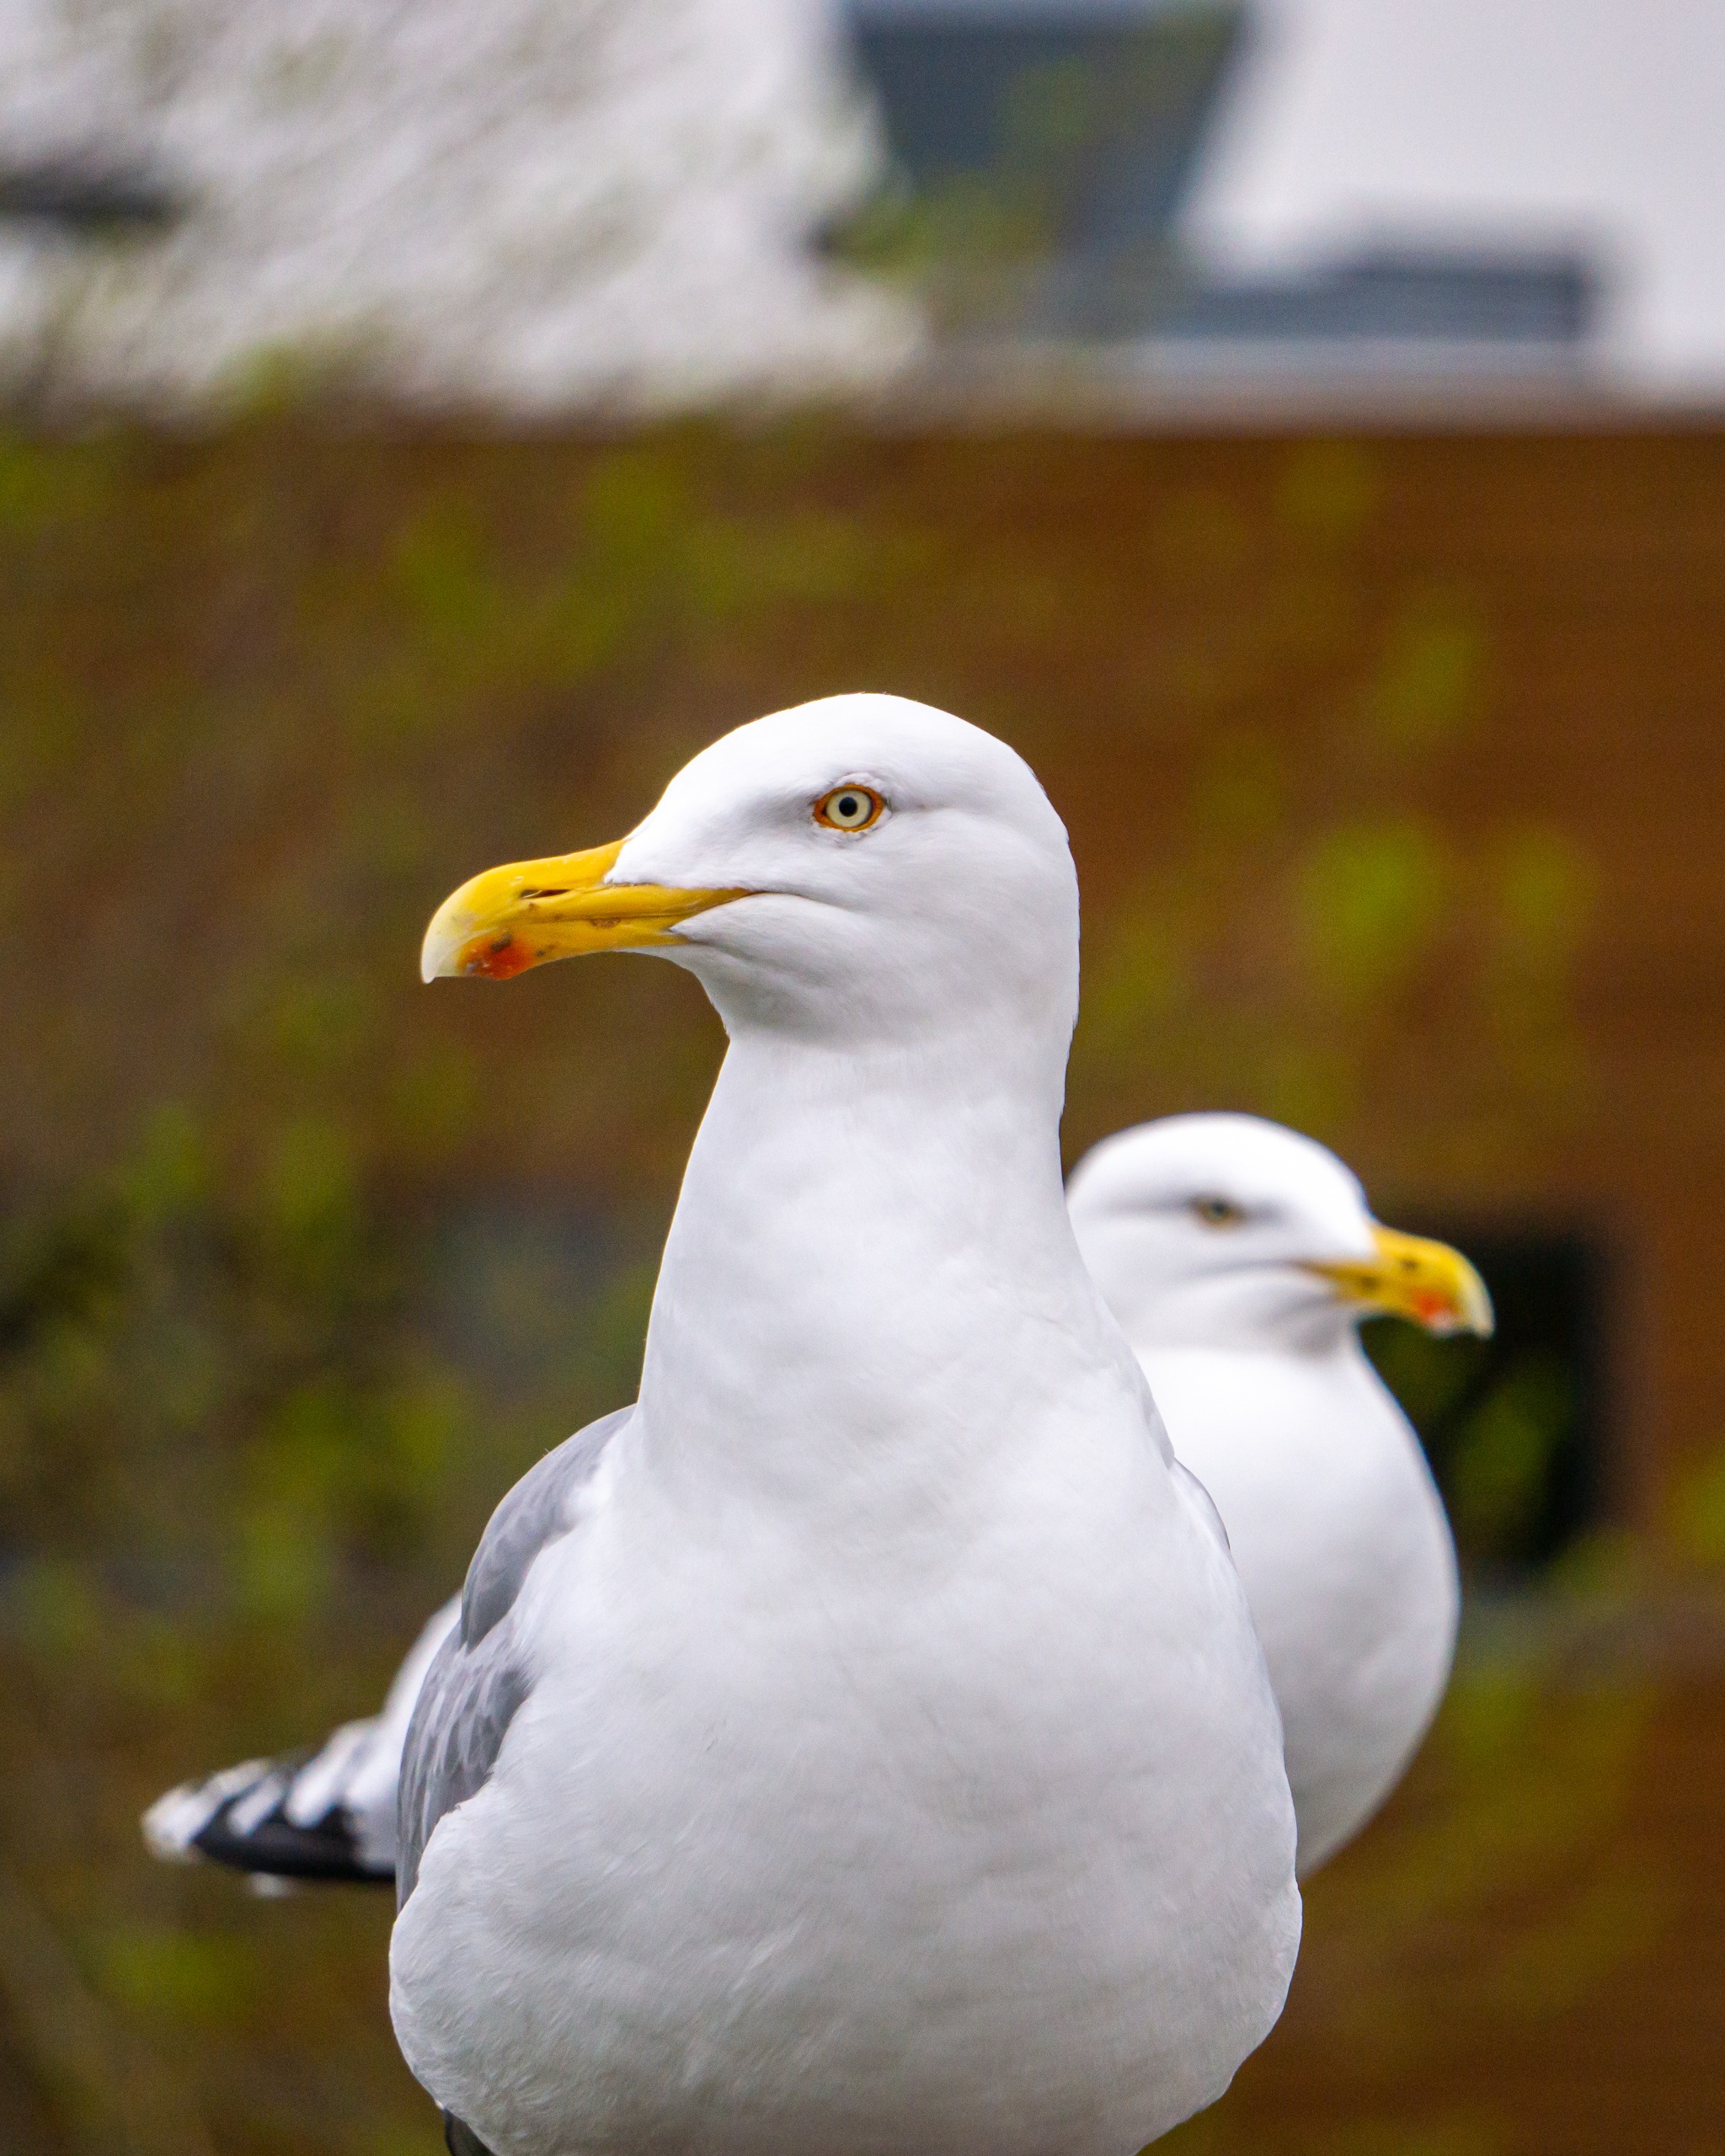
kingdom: Animalia
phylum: Chordata
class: Aves
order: Charadriiformes
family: Laridae
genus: Larus
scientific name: Larus argentatus
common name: Sølvmåge
